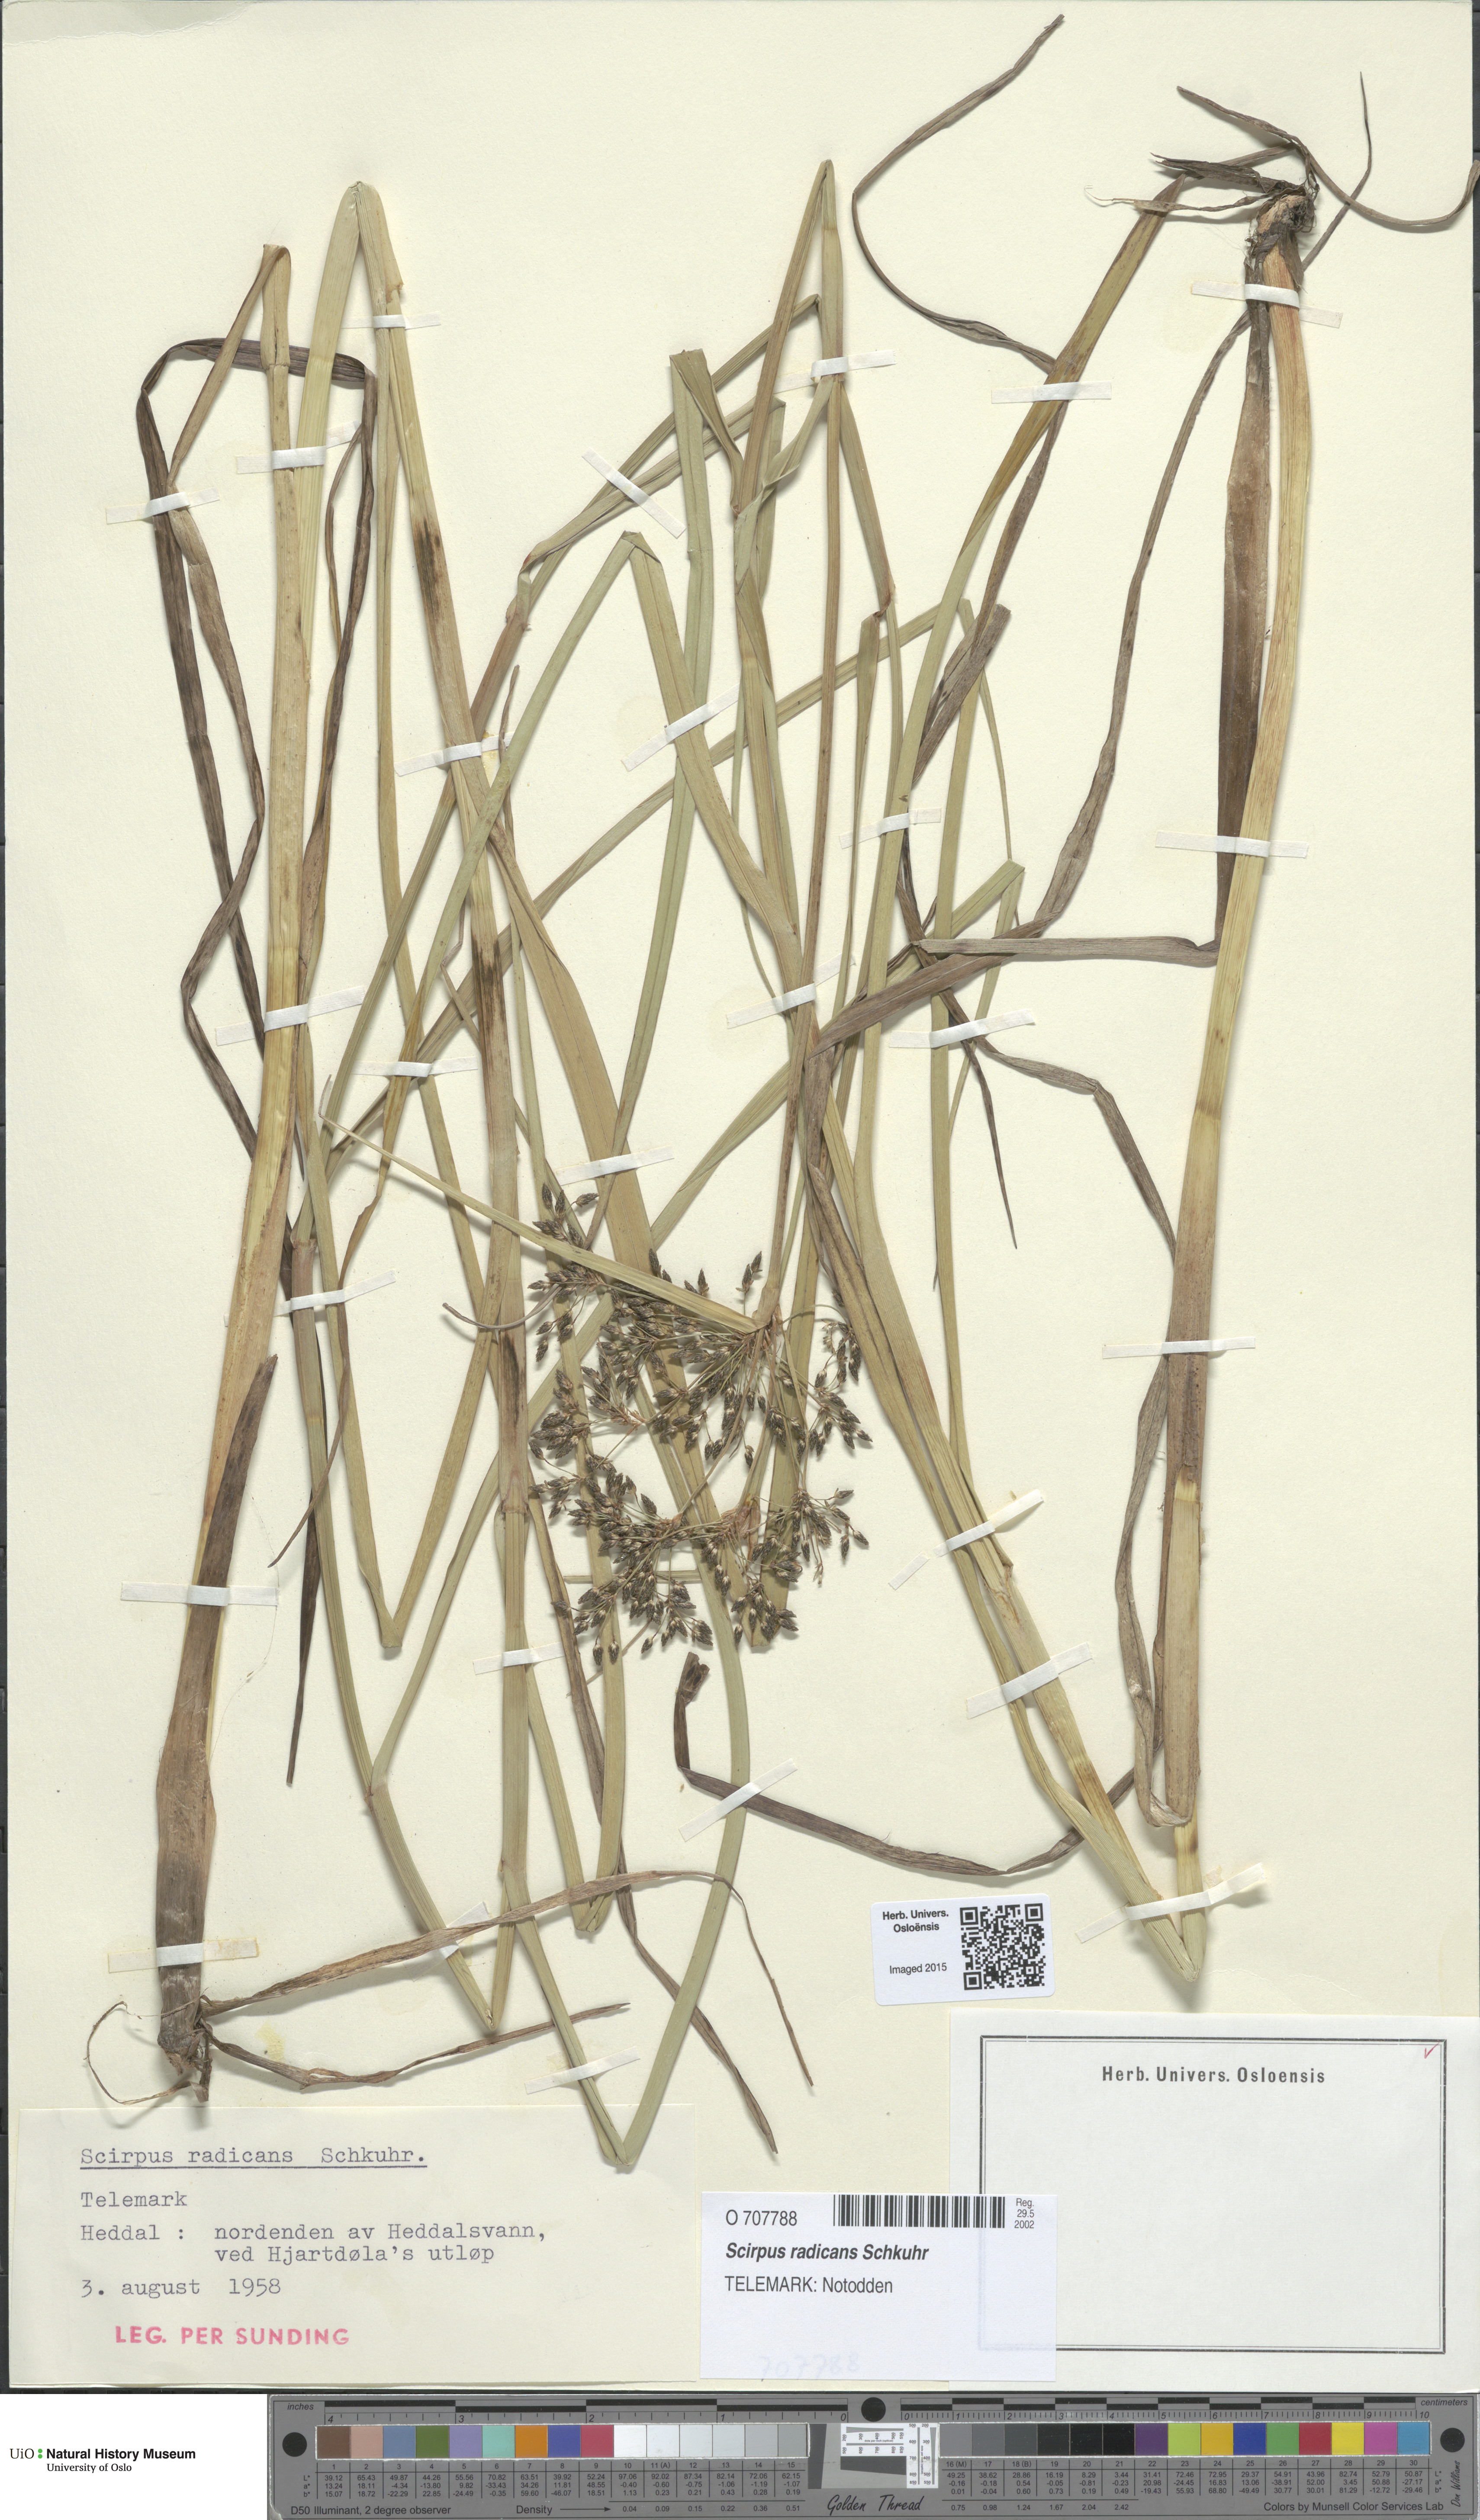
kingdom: Plantae
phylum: Tracheophyta
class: Liliopsida
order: Poales
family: Cyperaceae
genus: Scirpus
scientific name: Scirpus radicans
